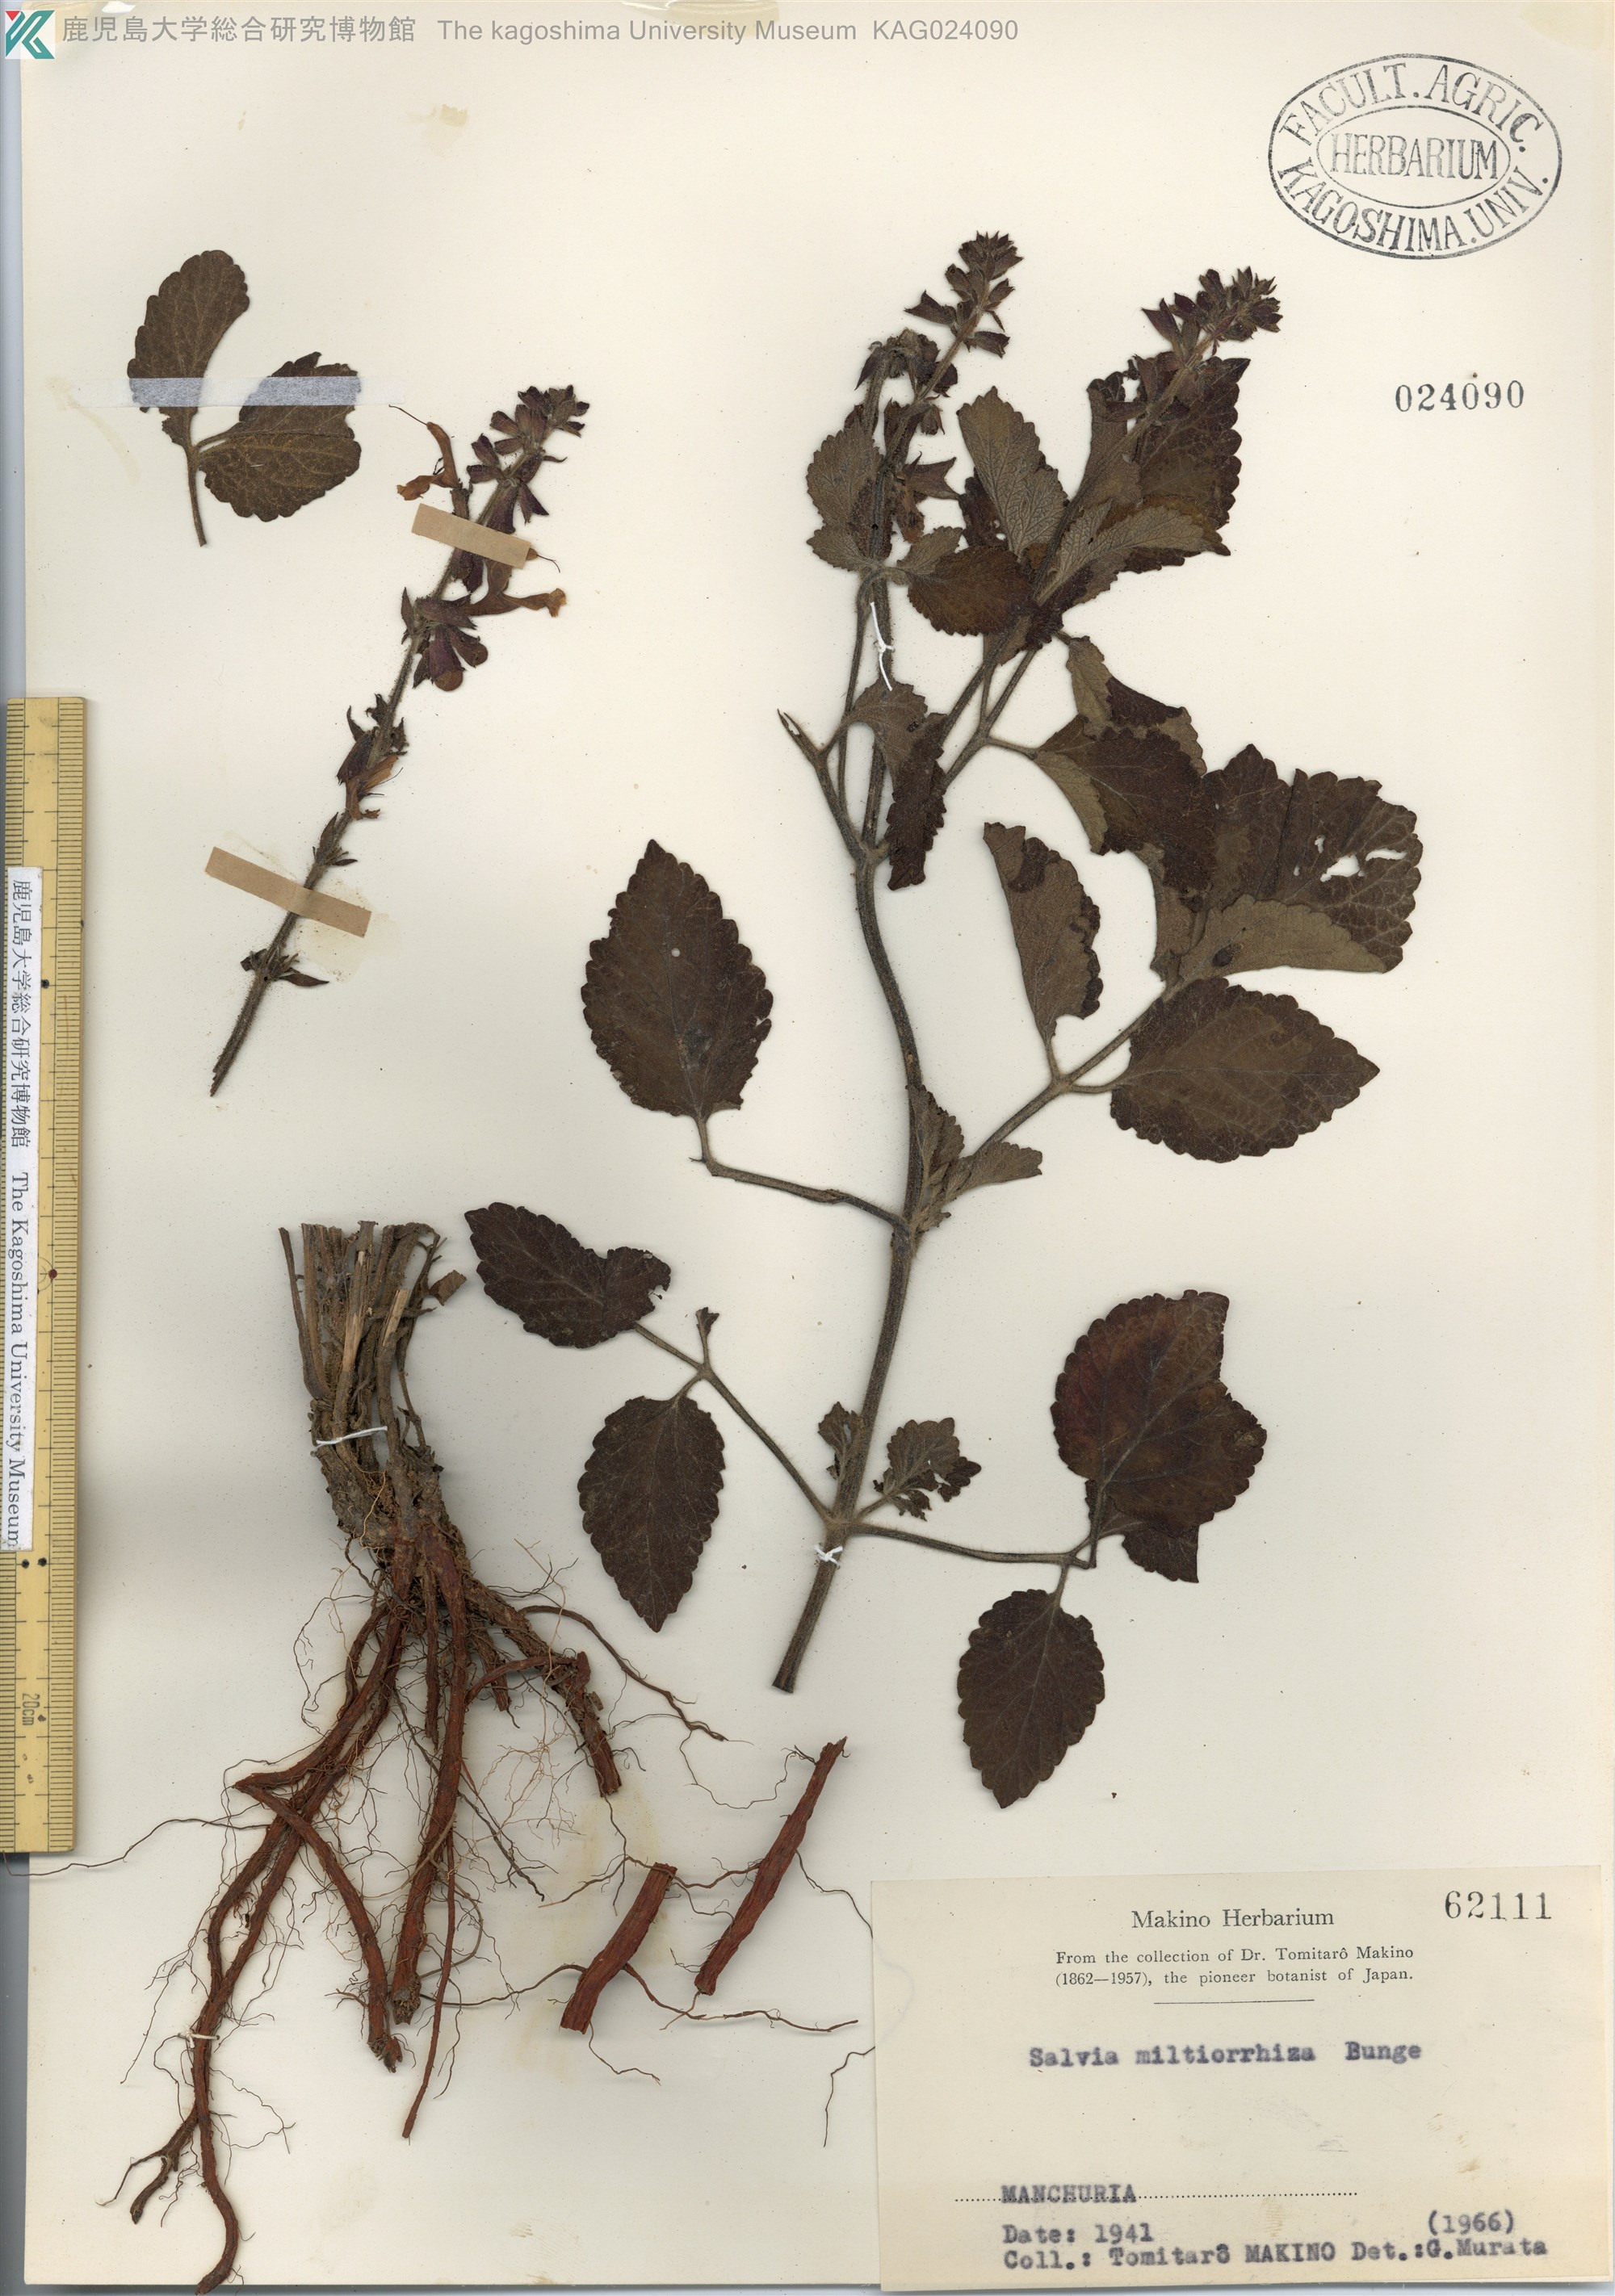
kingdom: Plantae
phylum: Tracheophyta
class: Magnoliopsida
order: Lamiales
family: Lamiaceae
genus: Salvia
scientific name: Salvia miltiorrhiza
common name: Redroot sage
